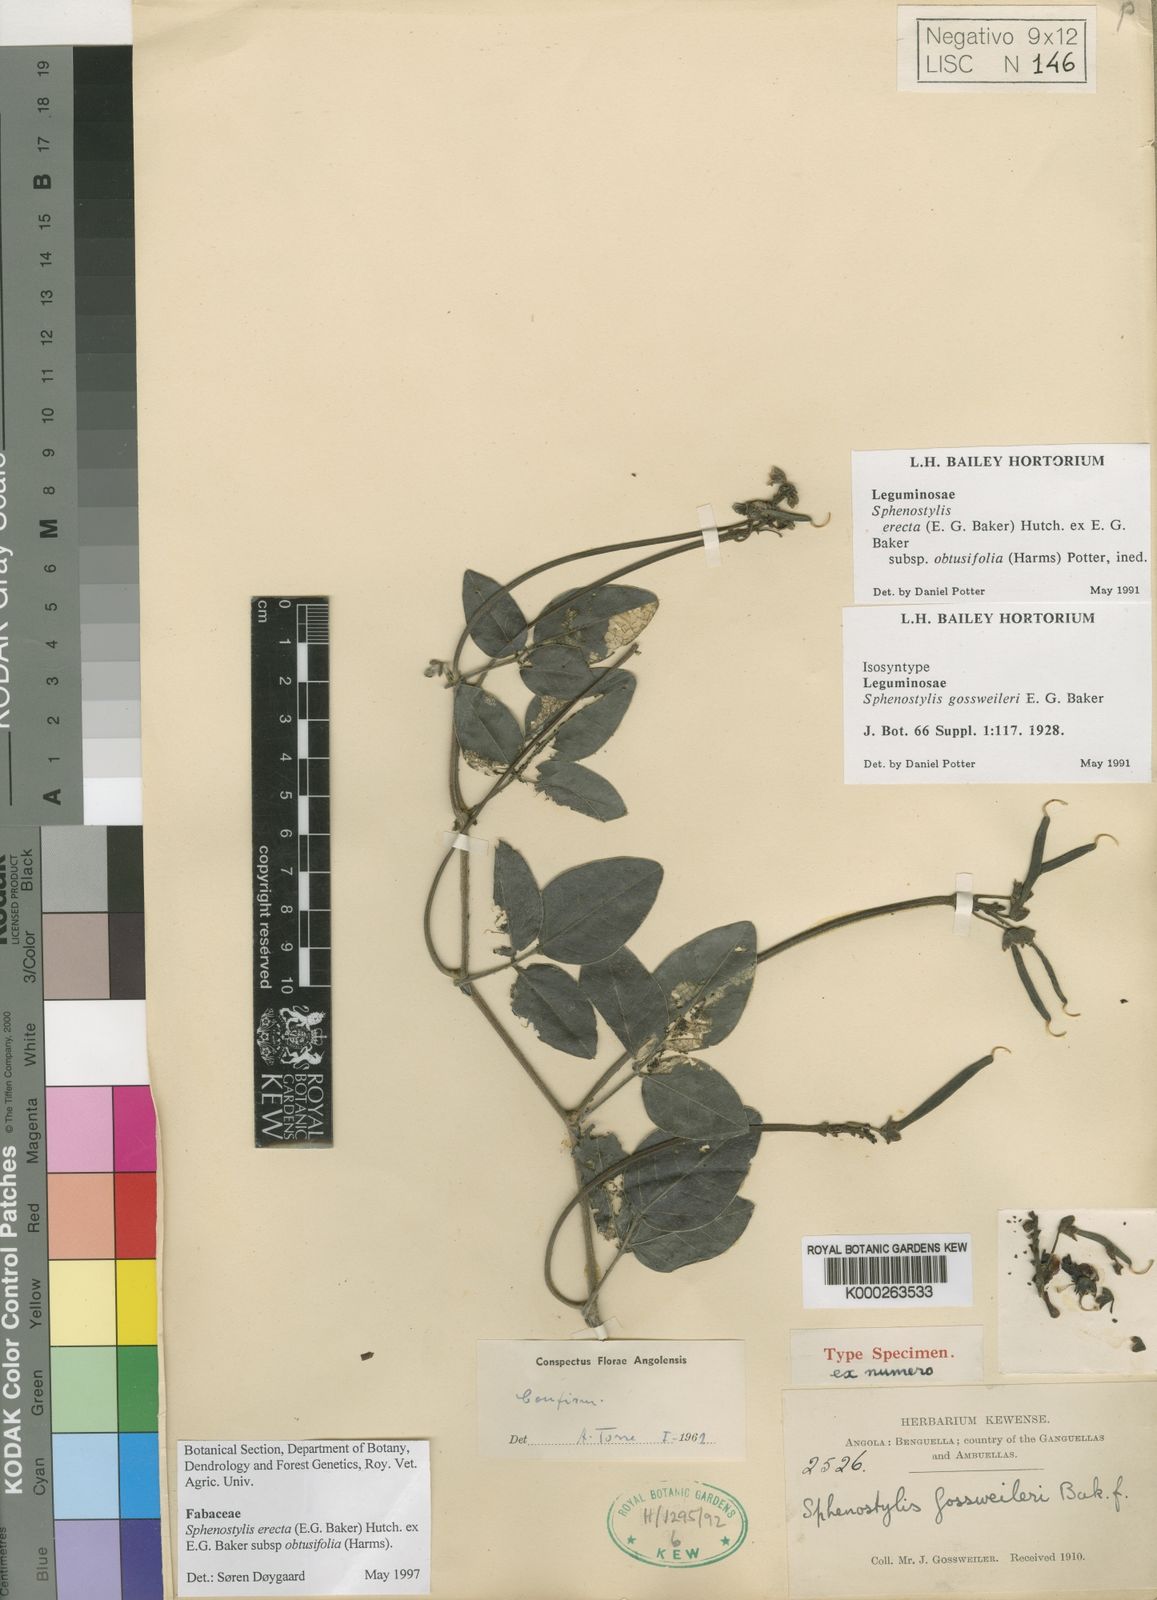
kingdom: Plantae
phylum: Tracheophyta
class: Magnoliopsida
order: Fabales
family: Fabaceae
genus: Sphenostylis
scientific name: Sphenostylis erecta
